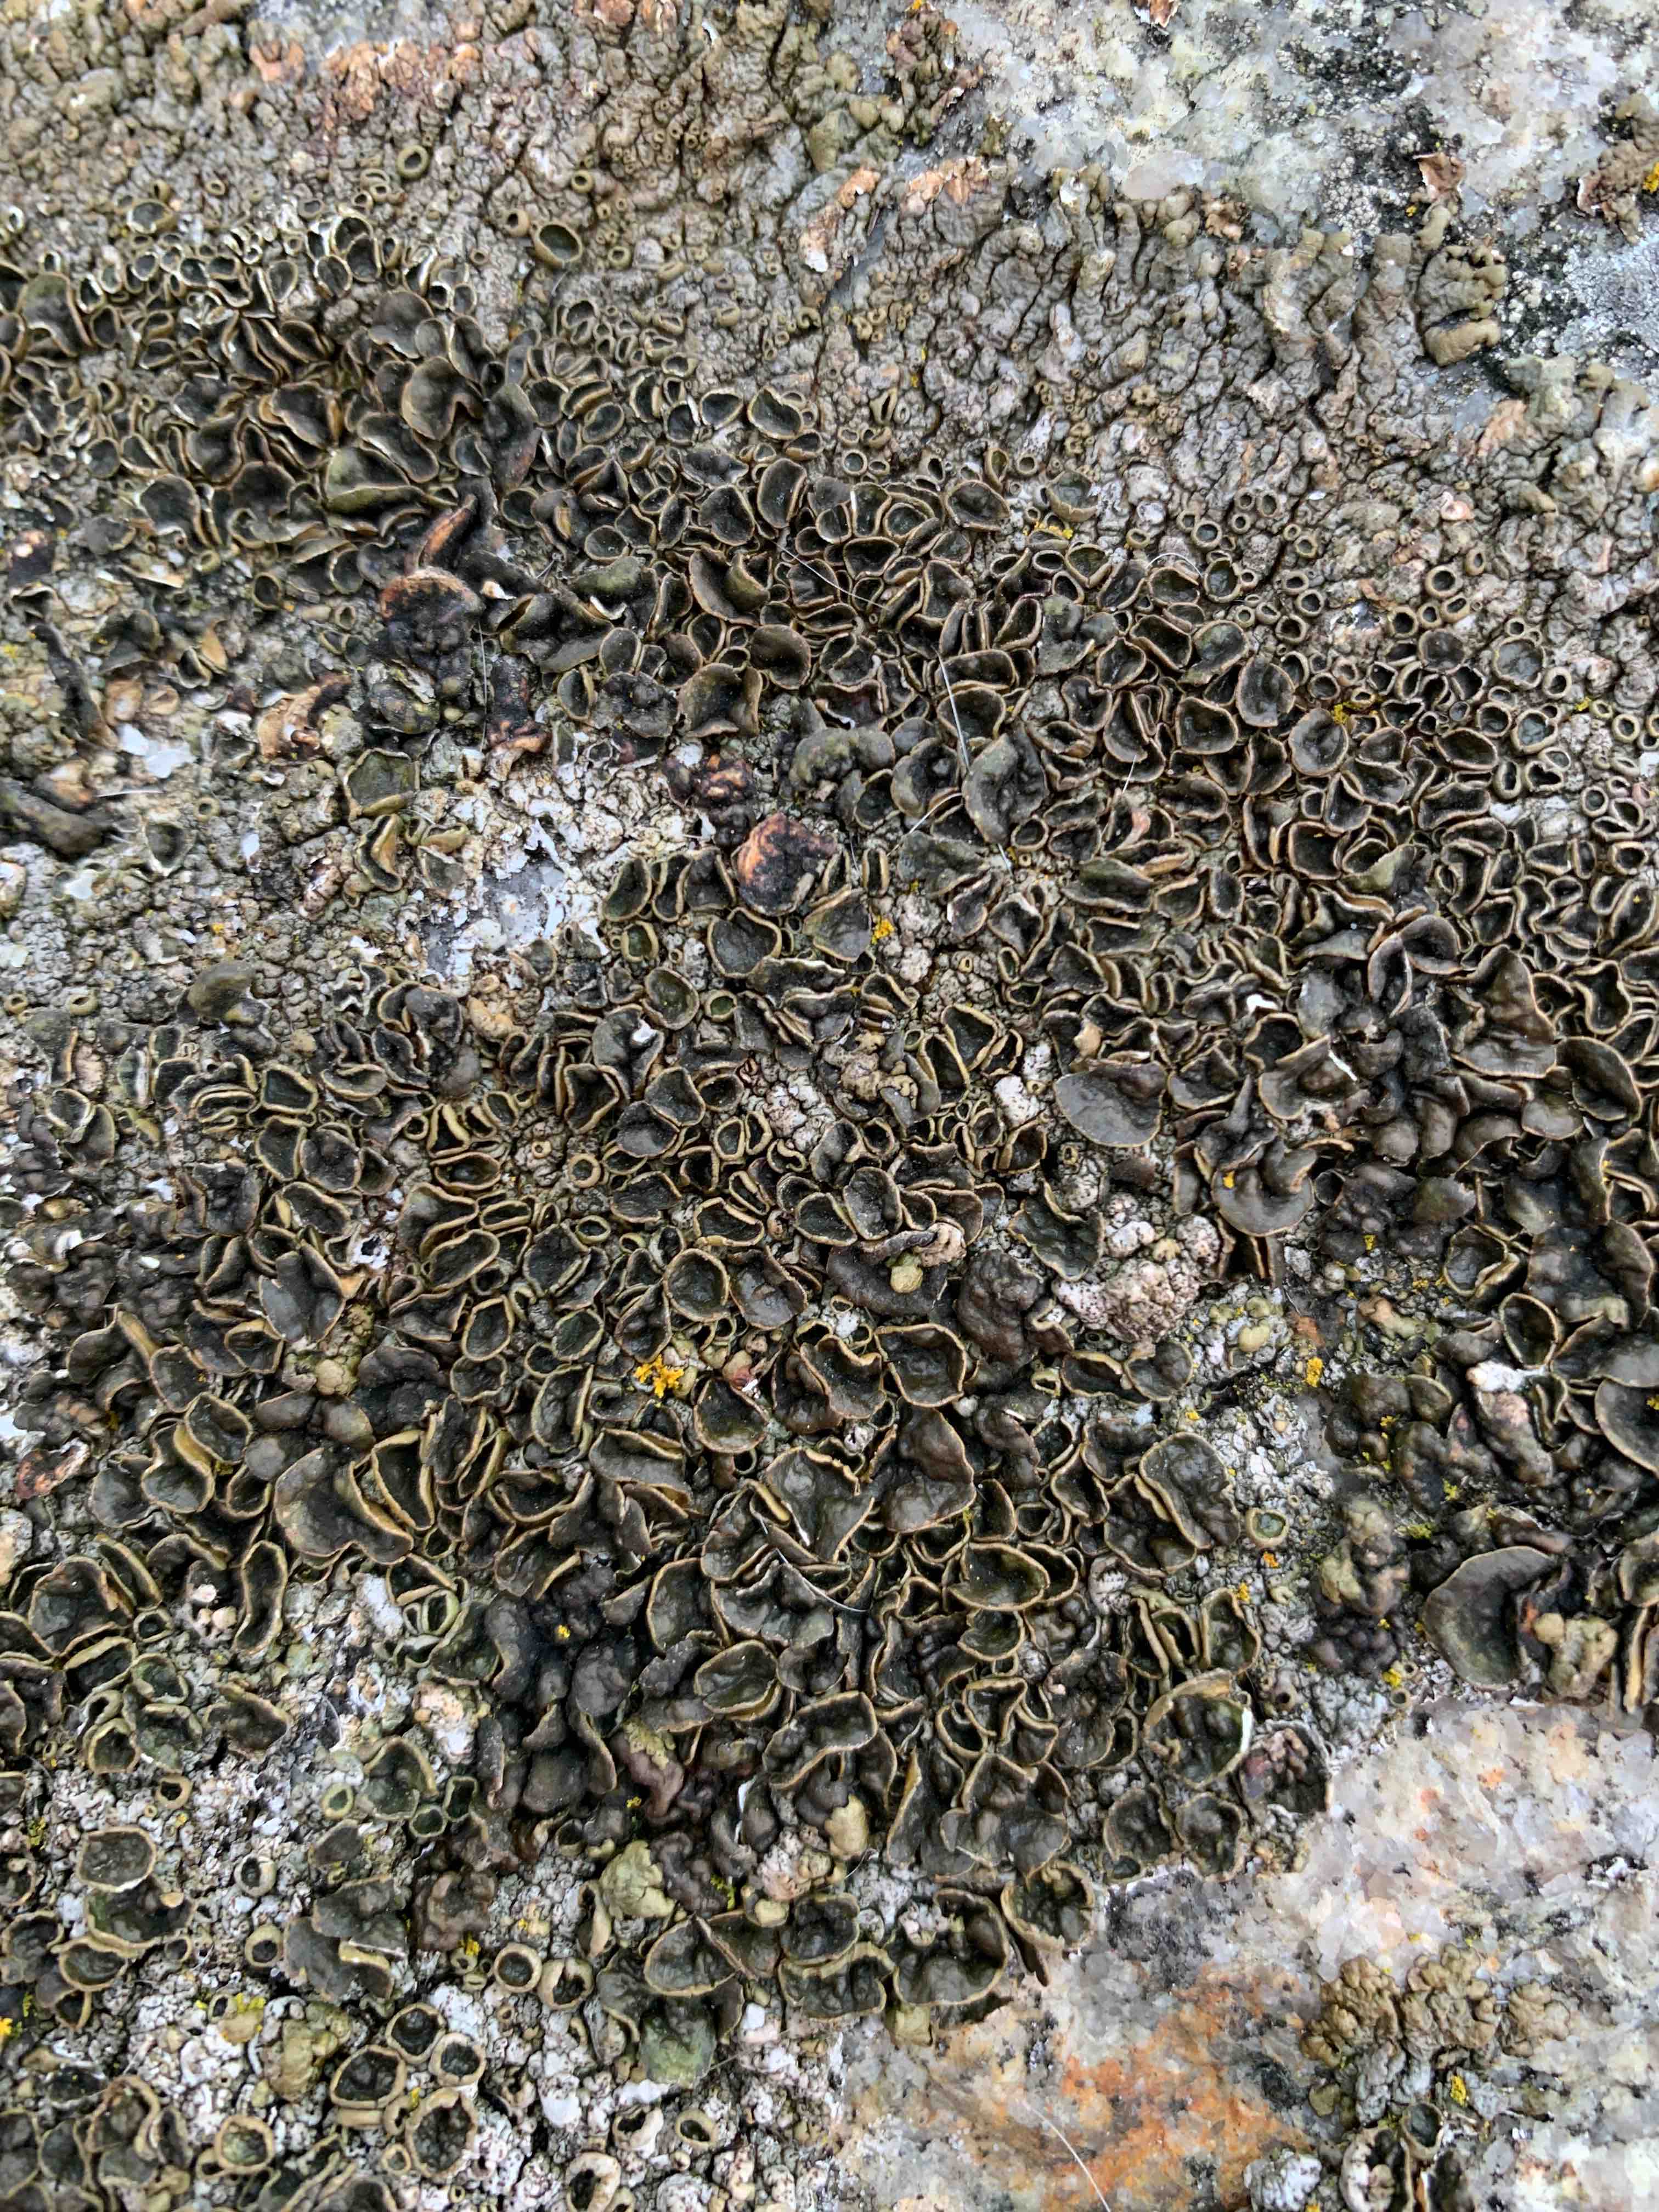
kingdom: Fungi
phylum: Ascomycota
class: Lecanoromycetes
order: Lecanorales
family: Parmeliaceae
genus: Xanthoparmelia
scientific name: Xanthoparmelia pulla
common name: mørkebrun skållav
